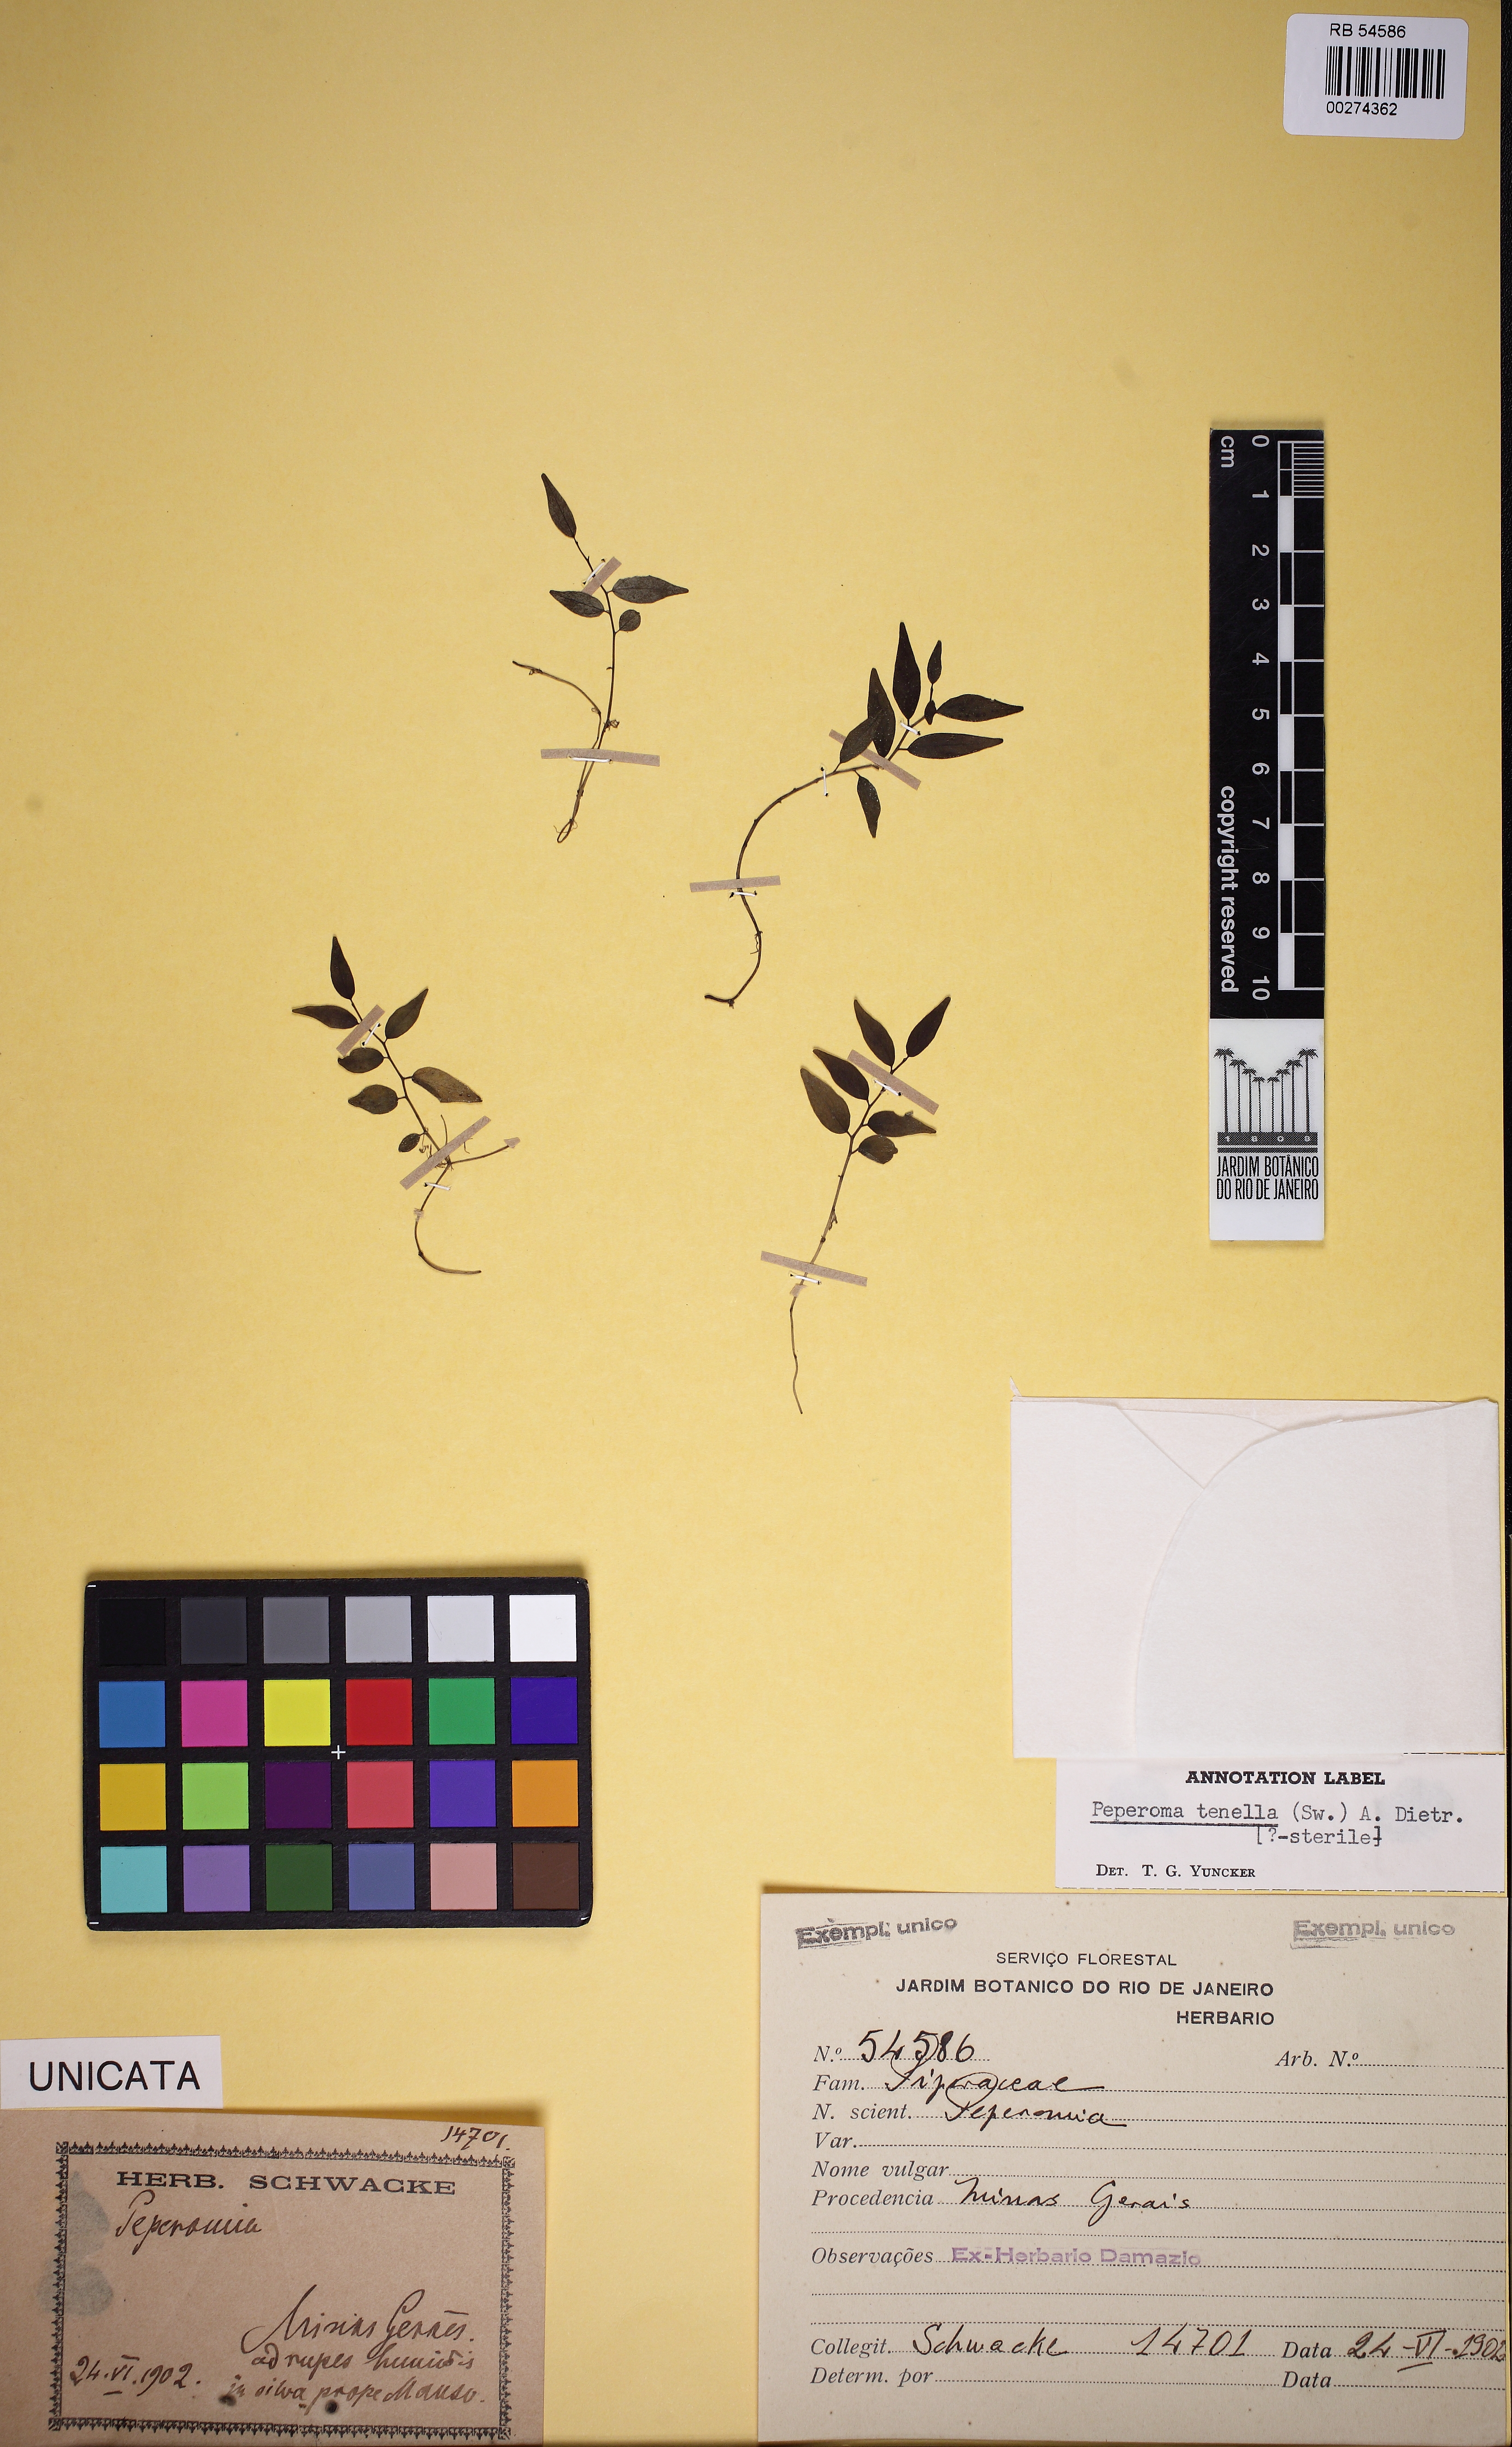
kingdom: Plantae
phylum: Tracheophyta
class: Magnoliopsida
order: Piperales
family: Piperaceae
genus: Peperomia
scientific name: Peperomia tenella
